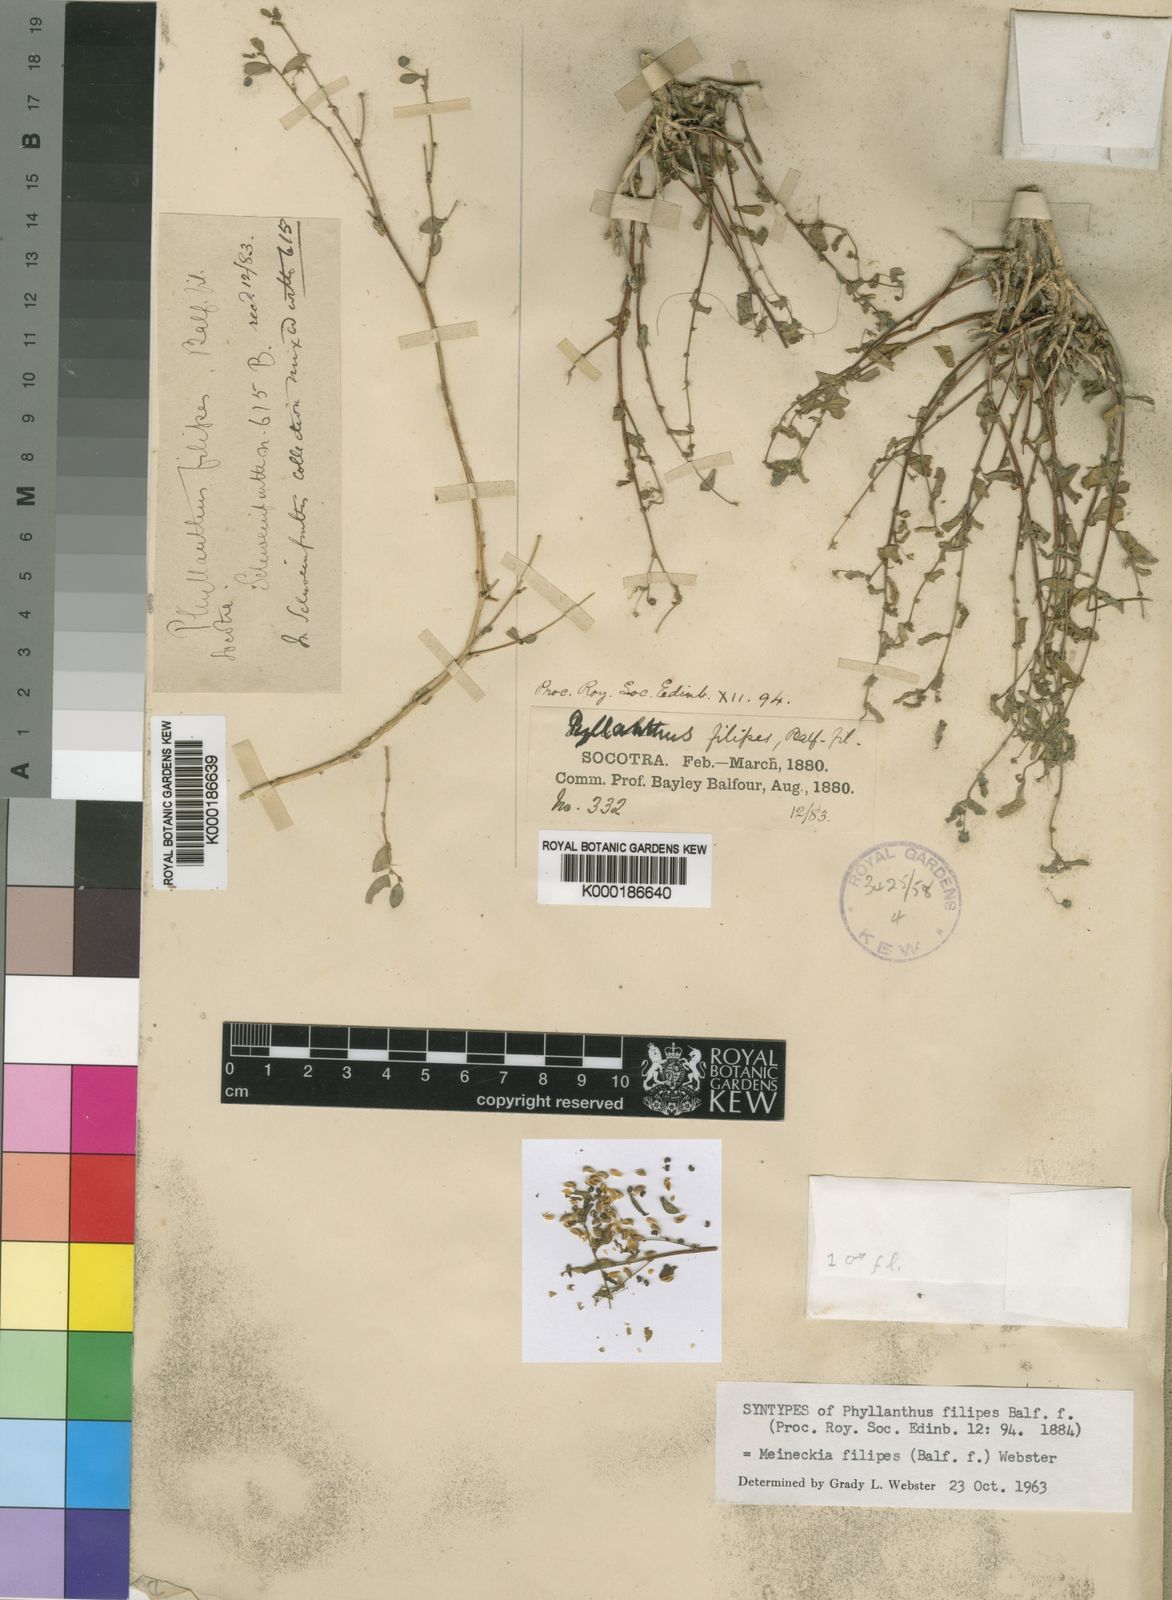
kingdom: Plantae
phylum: Tracheophyta
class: Magnoliopsida
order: Malpighiales
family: Phyllanthaceae
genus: Meineckia
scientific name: Meineckia filipes
